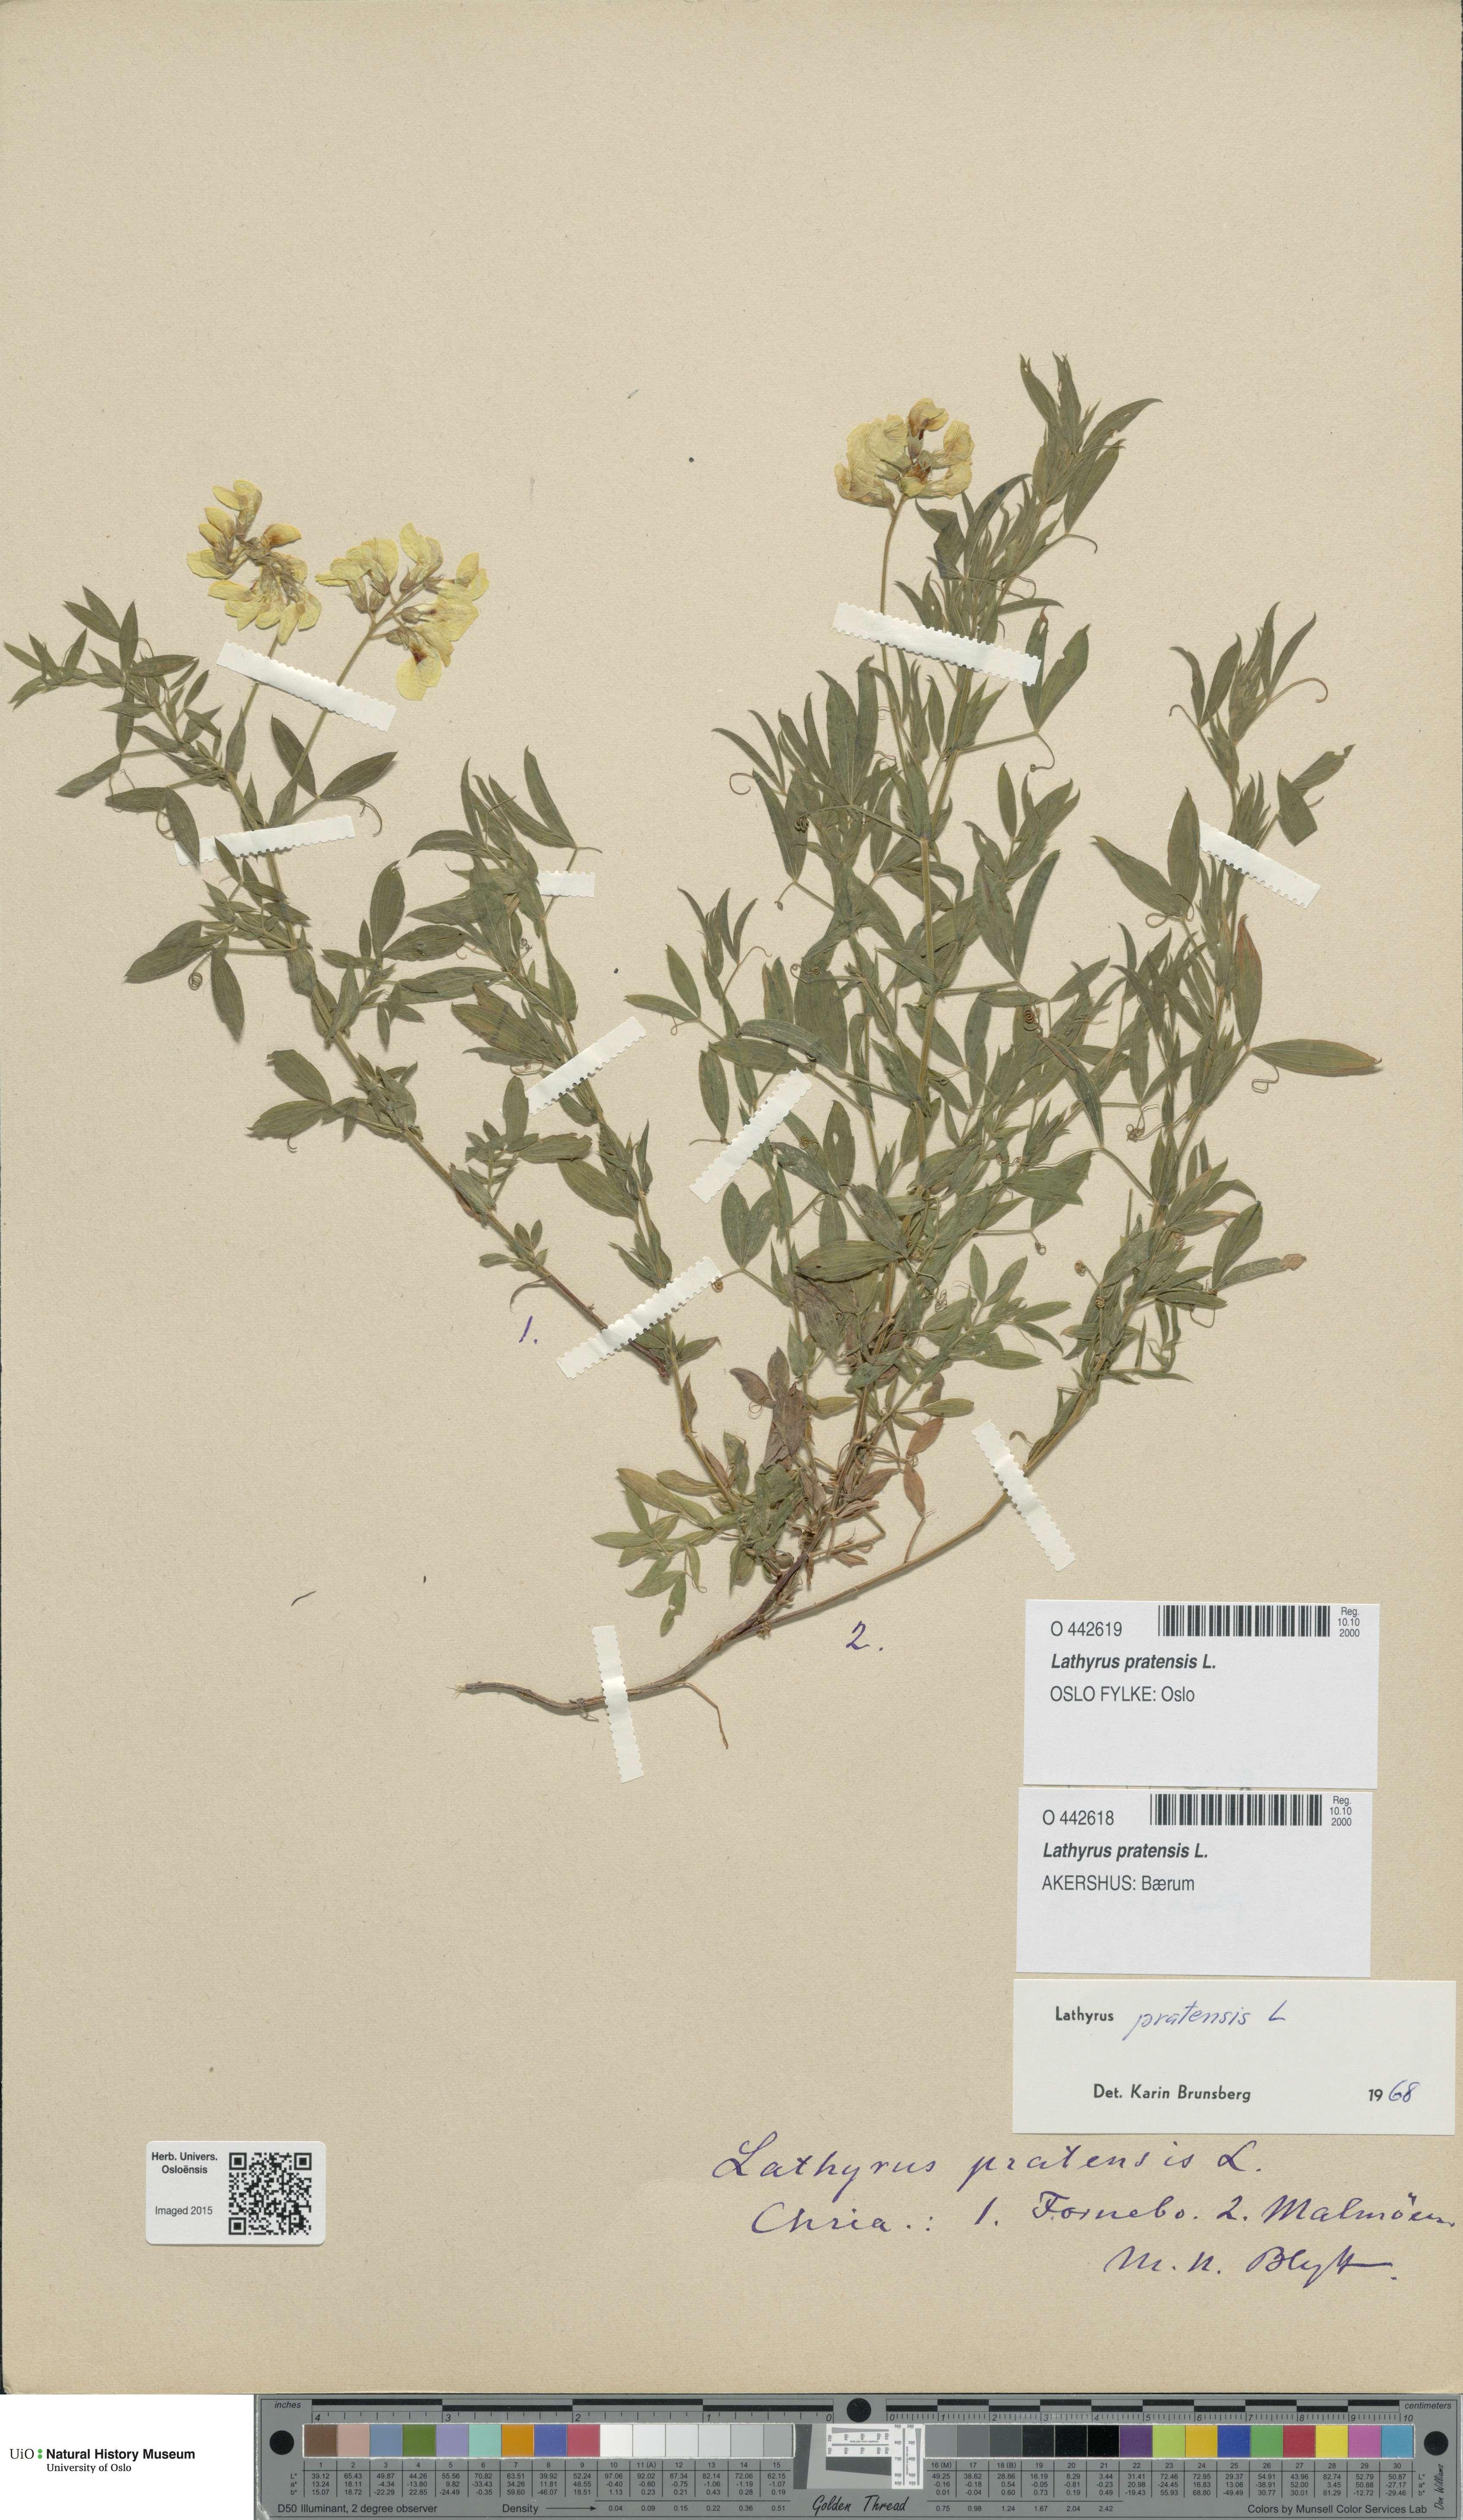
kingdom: Plantae
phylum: Tracheophyta
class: Magnoliopsida
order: Fabales
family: Fabaceae
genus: Lathyrus
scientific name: Lathyrus pratensis
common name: Meadow vetchling
